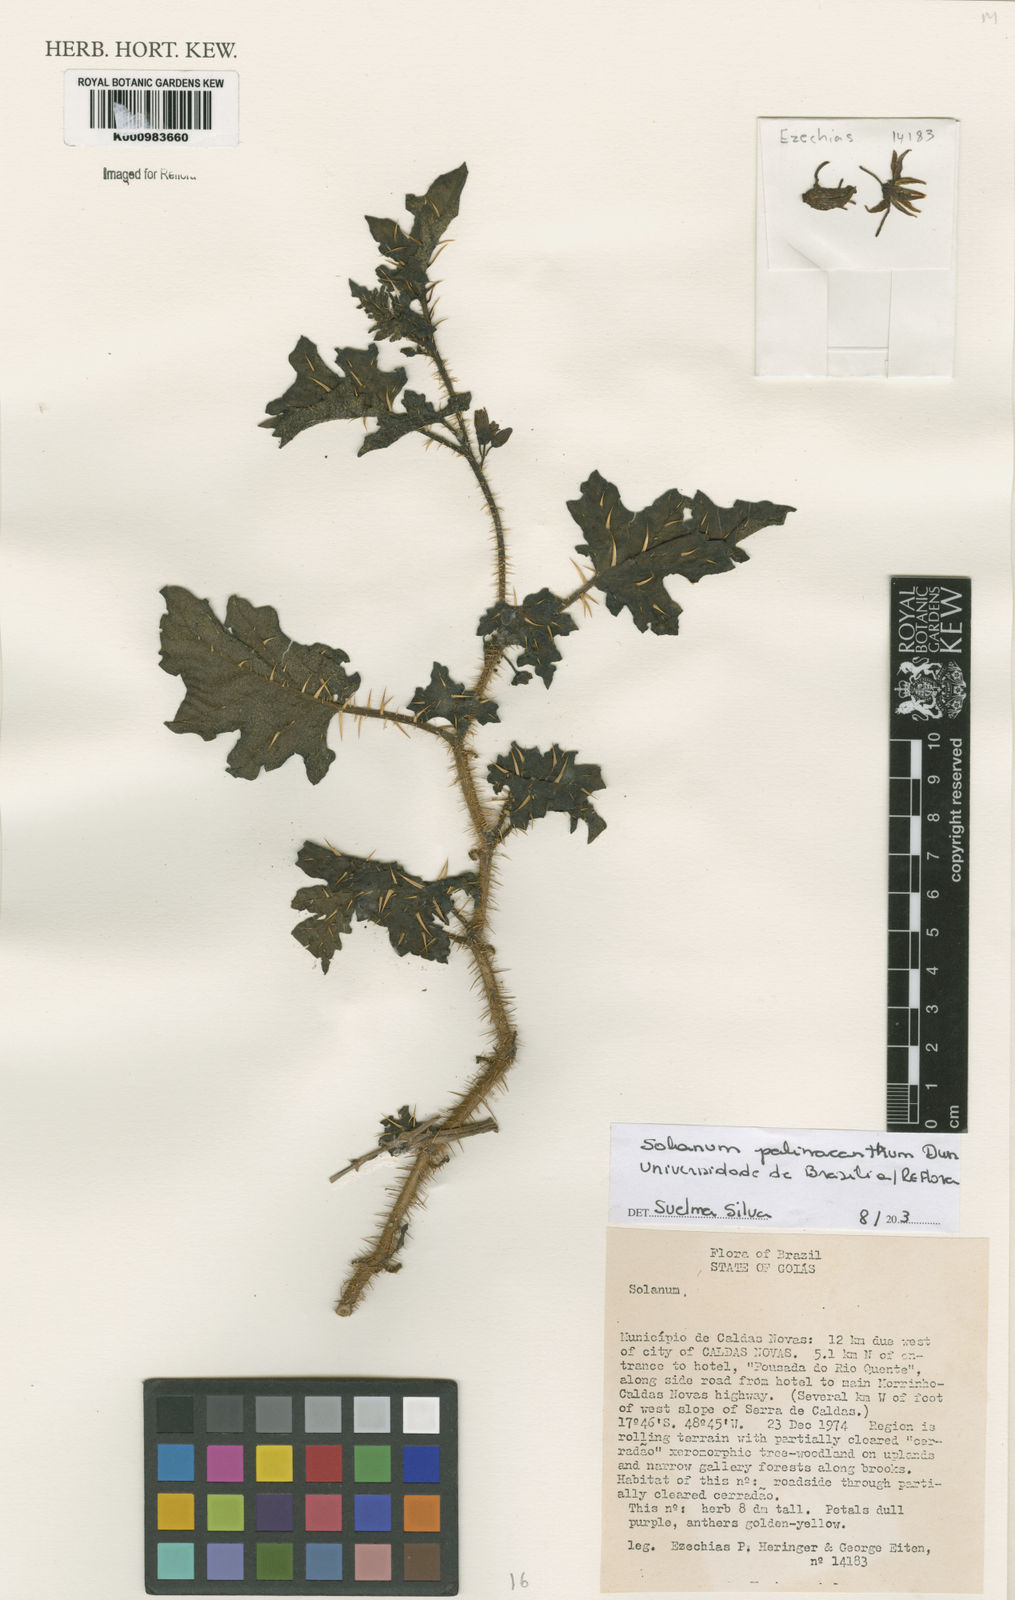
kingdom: Plantae
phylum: Tracheophyta
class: Magnoliopsida
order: Solanales
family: Solanaceae
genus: Solanum
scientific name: Solanum palinacanthum
